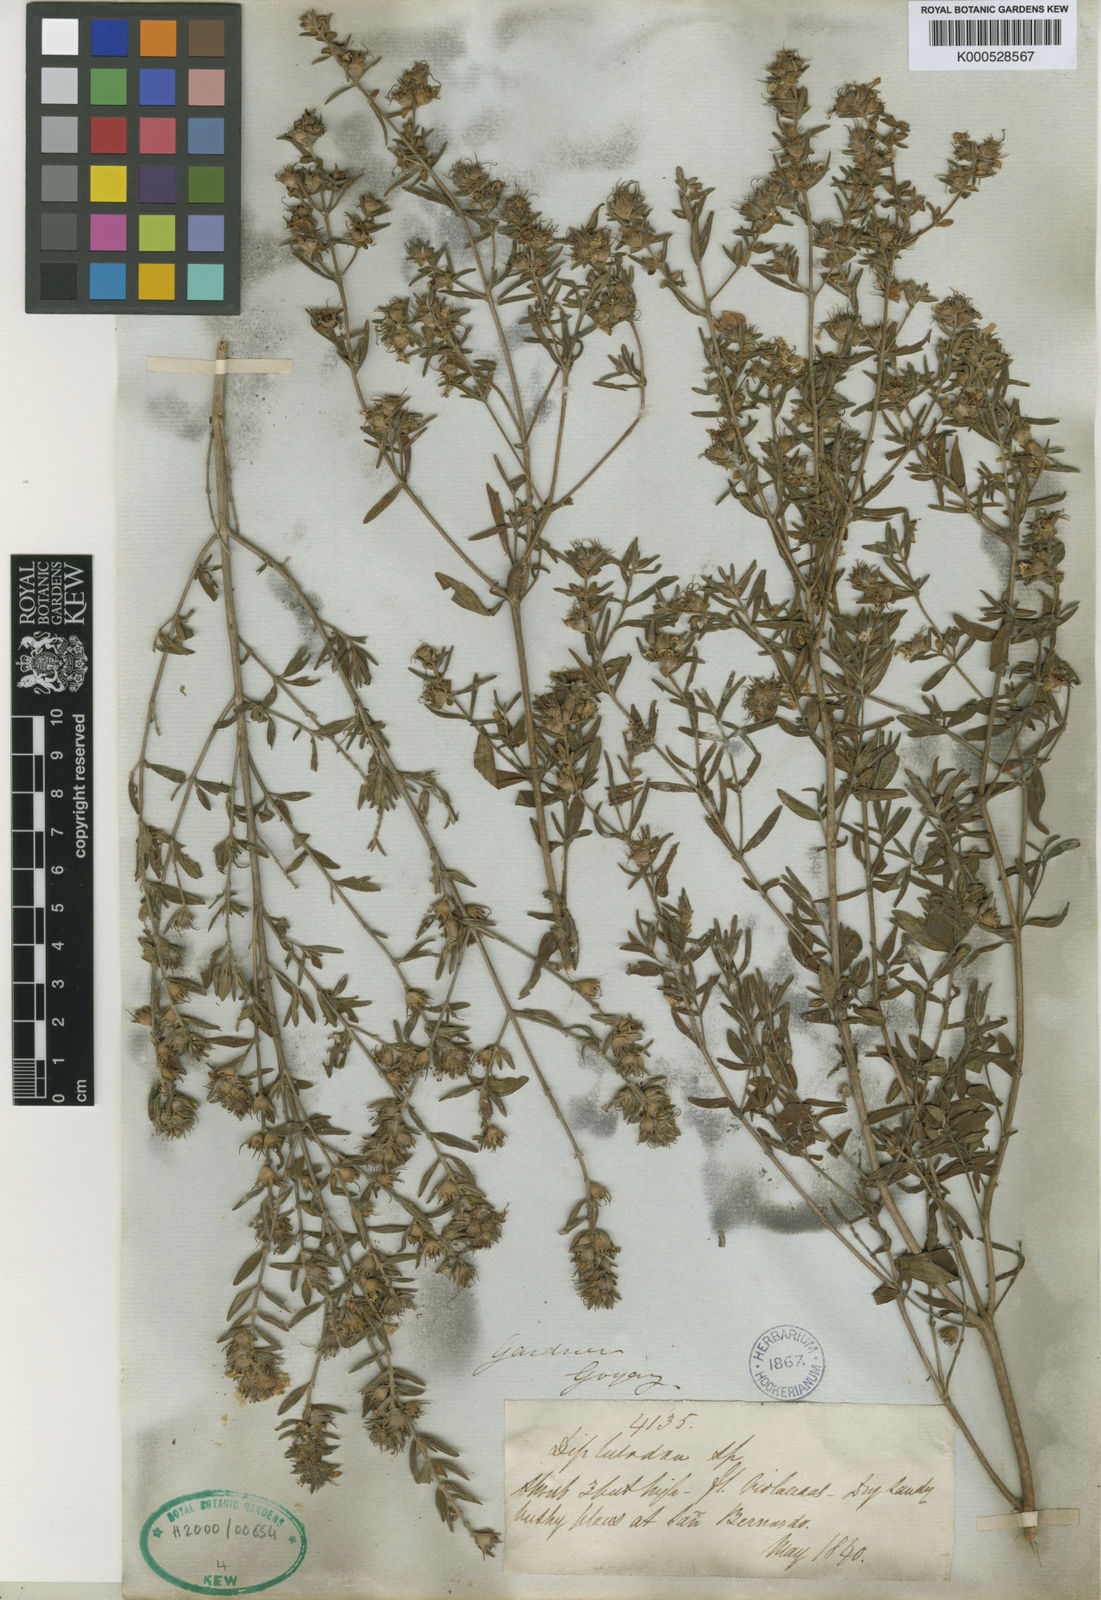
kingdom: Plantae
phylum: Tracheophyta
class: Magnoliopsida
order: Myrtales
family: Lythraceae
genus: Diplusodon
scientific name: Diplusodon macrodon
